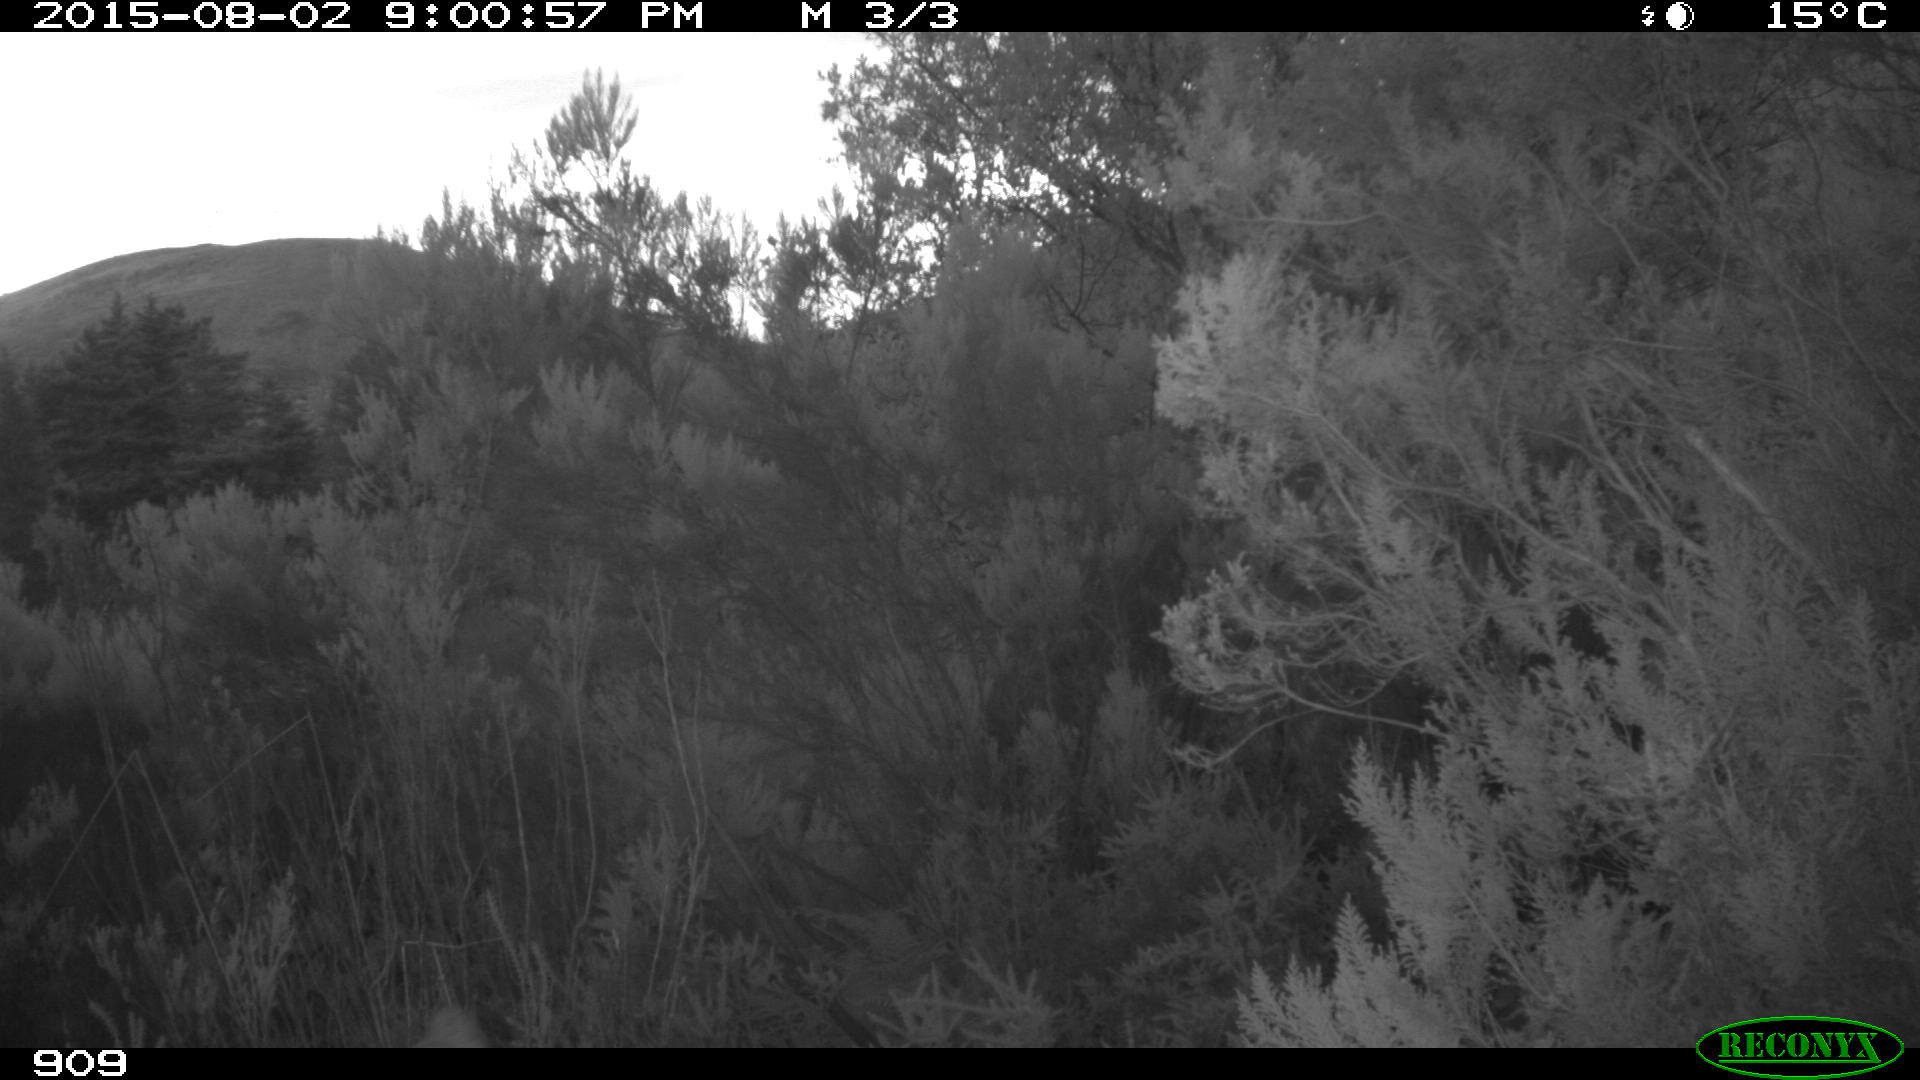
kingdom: Animalia
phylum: Chordata
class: Mammalia
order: Artiodactyla
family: Cervidae
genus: Capreolus
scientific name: Capreolus capreolus
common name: Western roe deer
